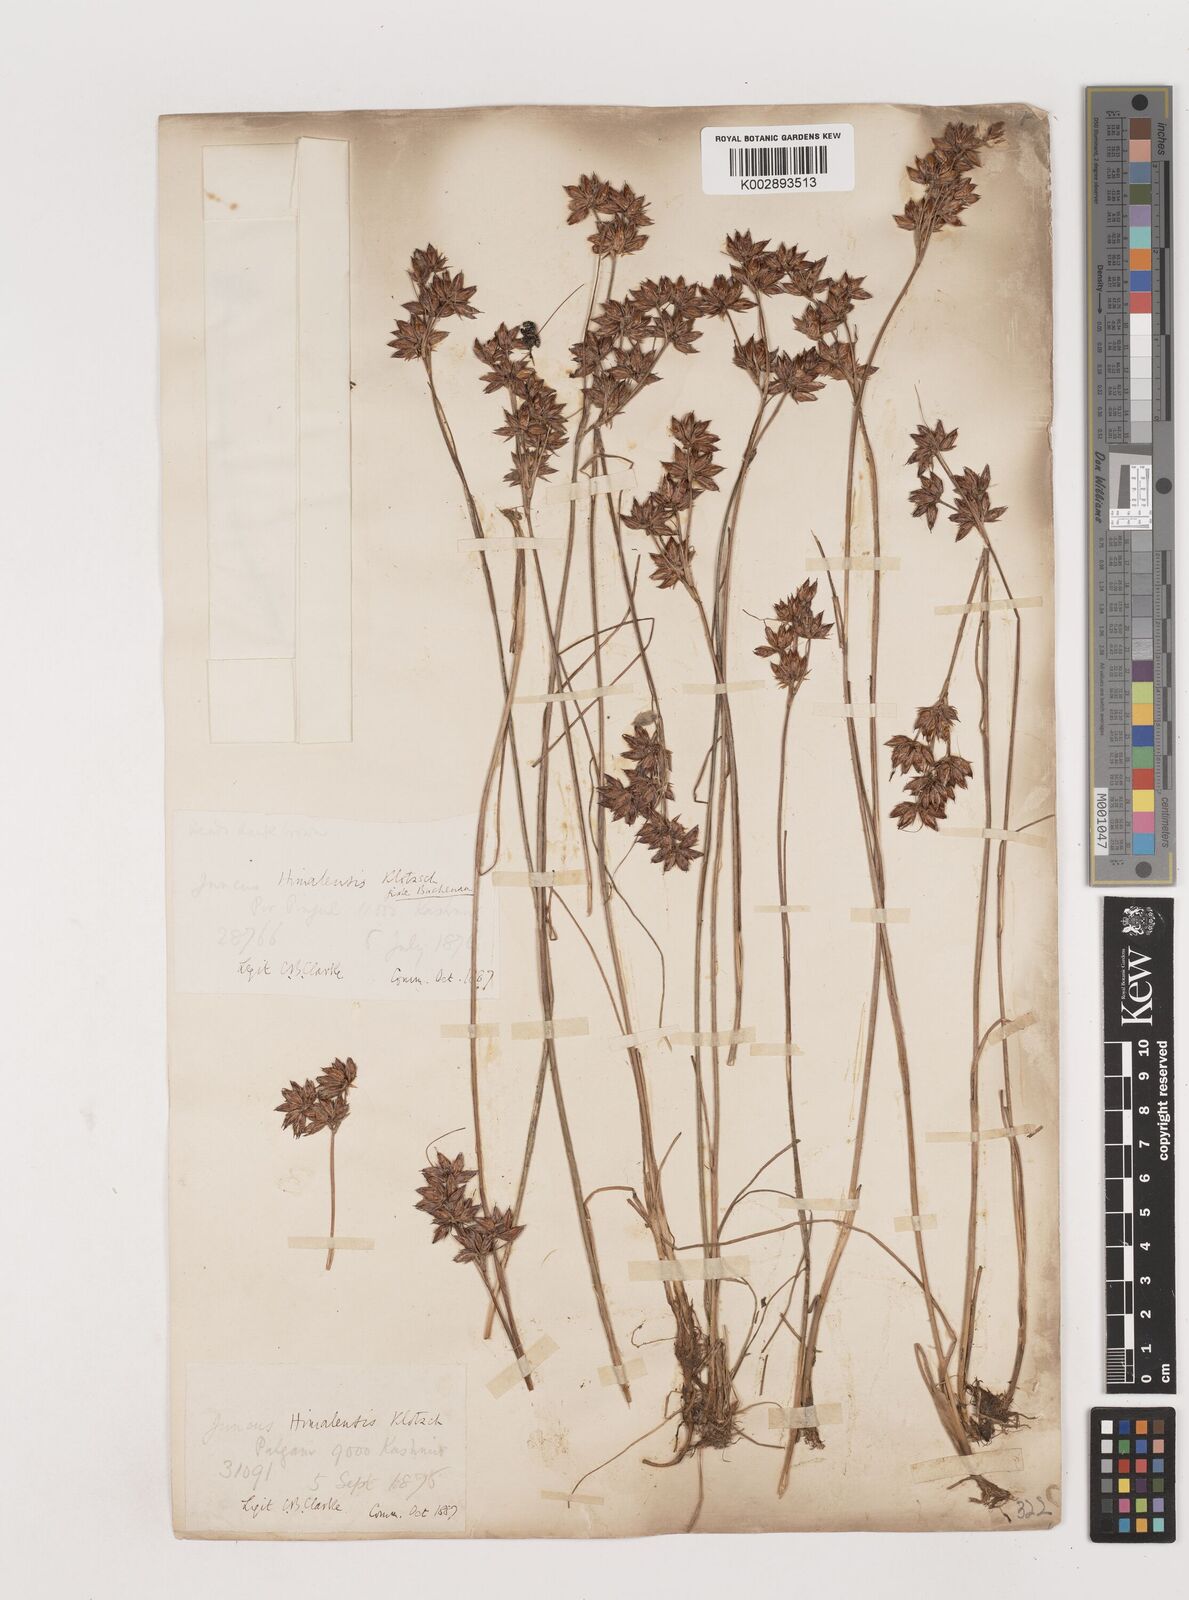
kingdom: Plantae
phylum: Tracheophyta
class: Liliopsida
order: Poales
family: Juncaceae
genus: Juncus
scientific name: Juncus himalensis
